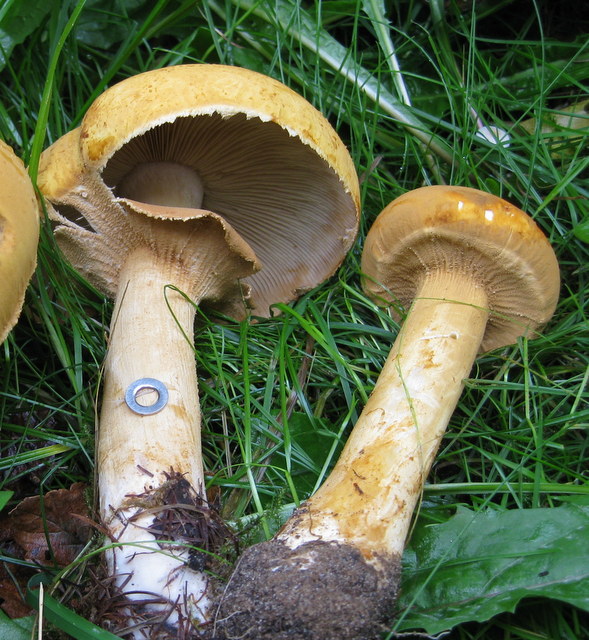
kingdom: Fungi
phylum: Basidiomycota
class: Agaricomycetes
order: Agaricales
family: Tricholomataceae
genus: Phaeolepiota
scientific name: Phaeolepiota aurea
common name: gyldenhat
